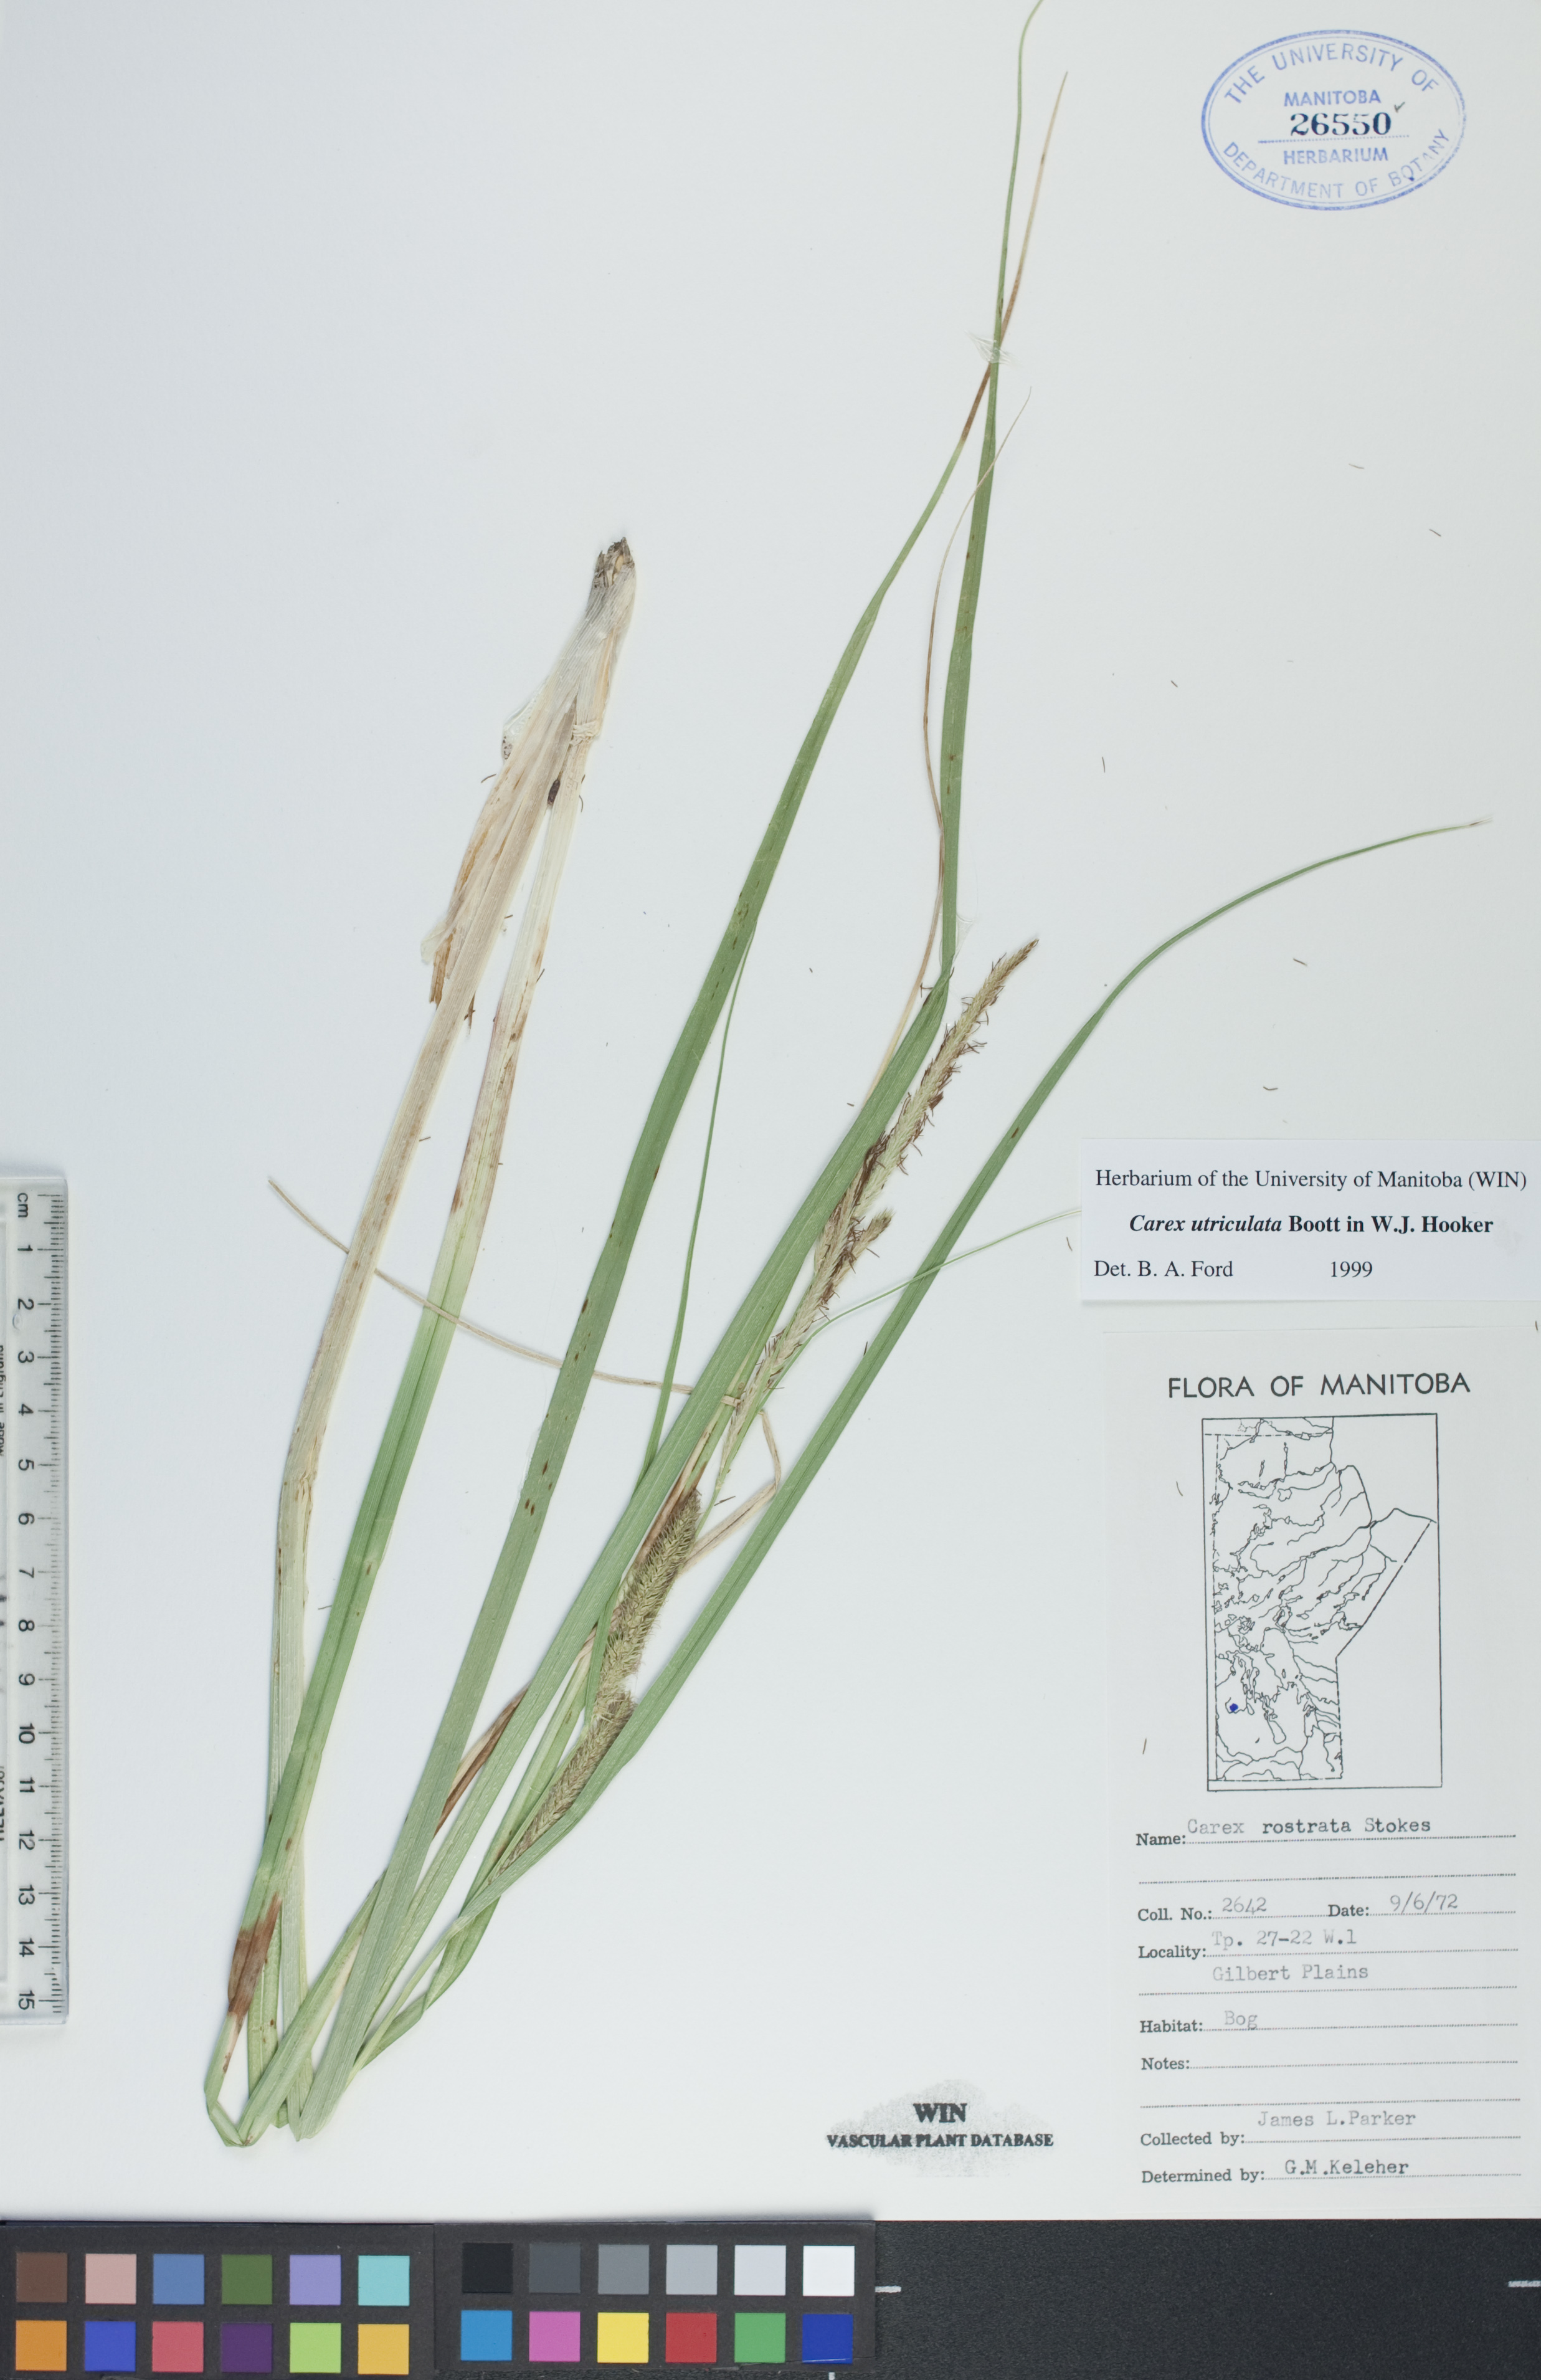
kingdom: Plantae
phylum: Tracheophyta
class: Liliopsida
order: Poales
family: Cyperaceae
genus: Carex
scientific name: Carex utriculata
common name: Beaked sedge
